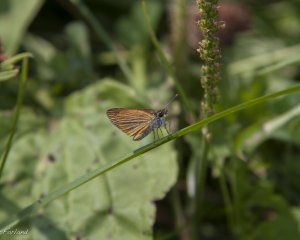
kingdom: Animalia
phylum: Arthropoda
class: Insecta
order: Lepidoptera
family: Hesperiidae
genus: Ancyloxypha
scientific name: Ancyloxypha numitor
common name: Least Skipper
